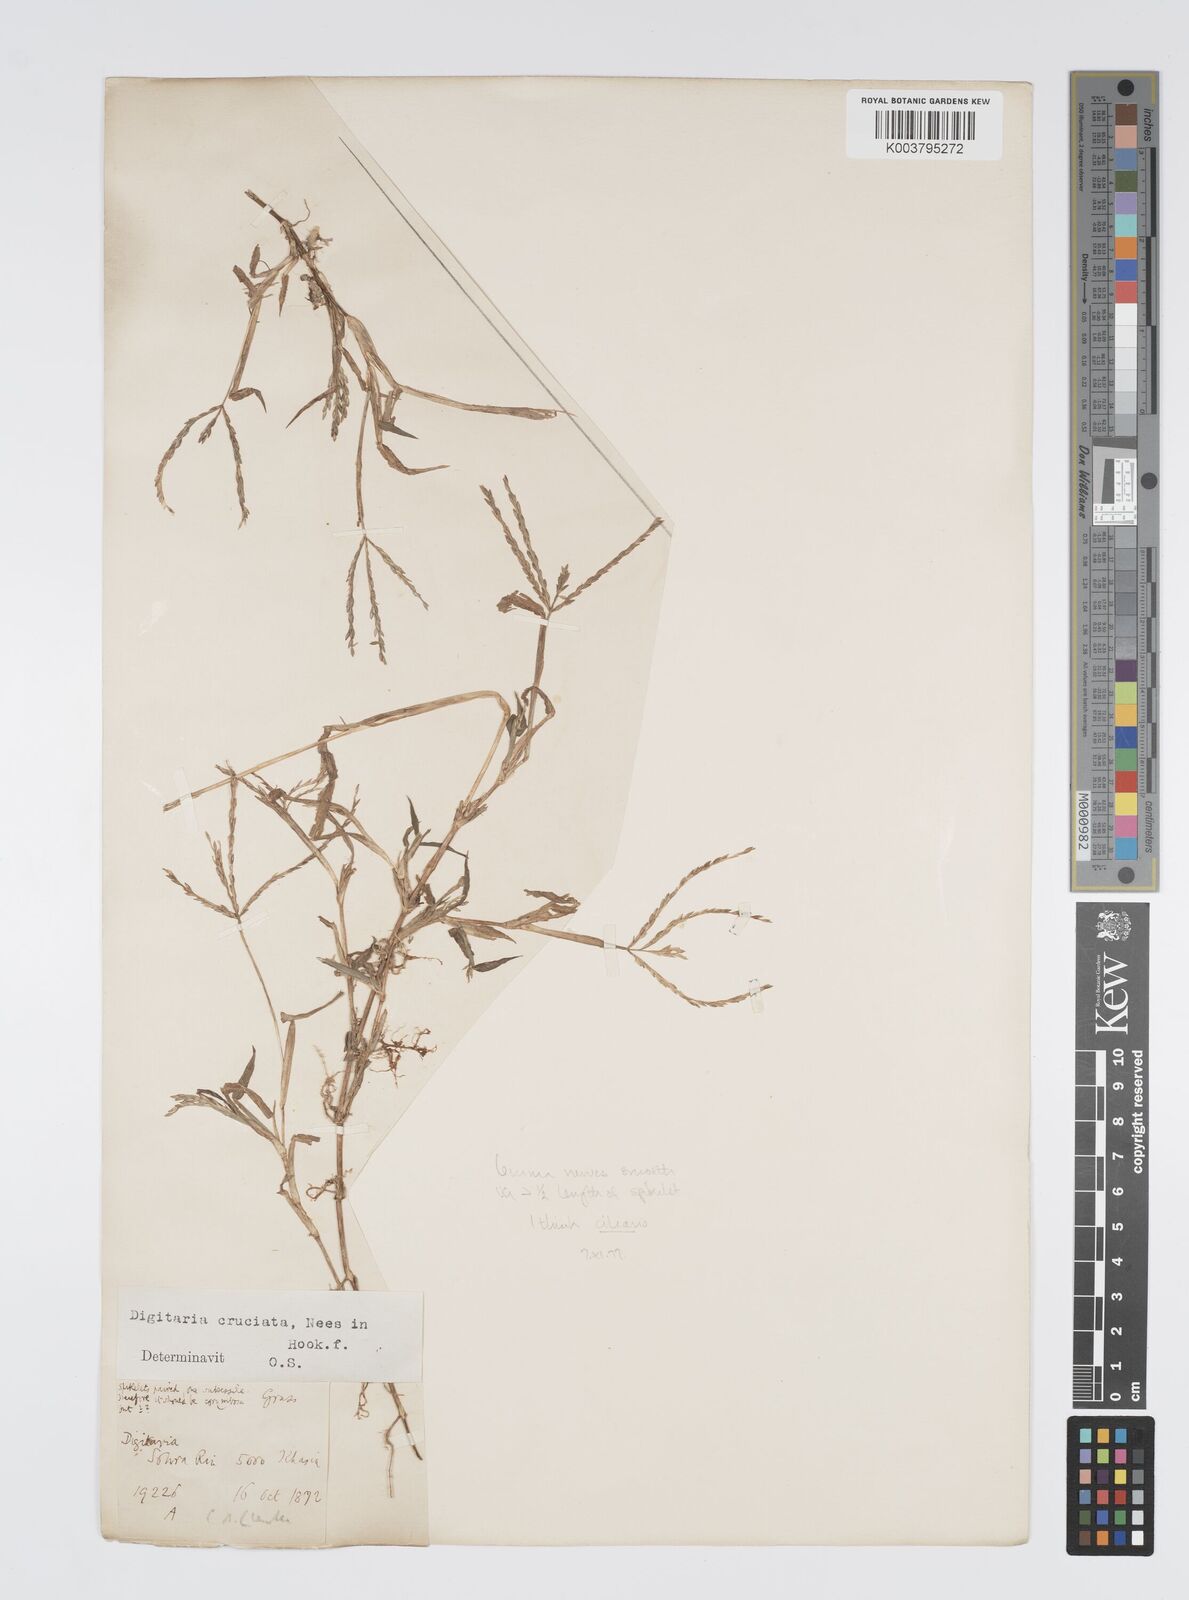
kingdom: Plantae
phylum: Tracheophyta
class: Liliopsida
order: Poales
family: Poaceae
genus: Digitaria
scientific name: Digitaria ciliaris
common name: Tropical finger-grass
